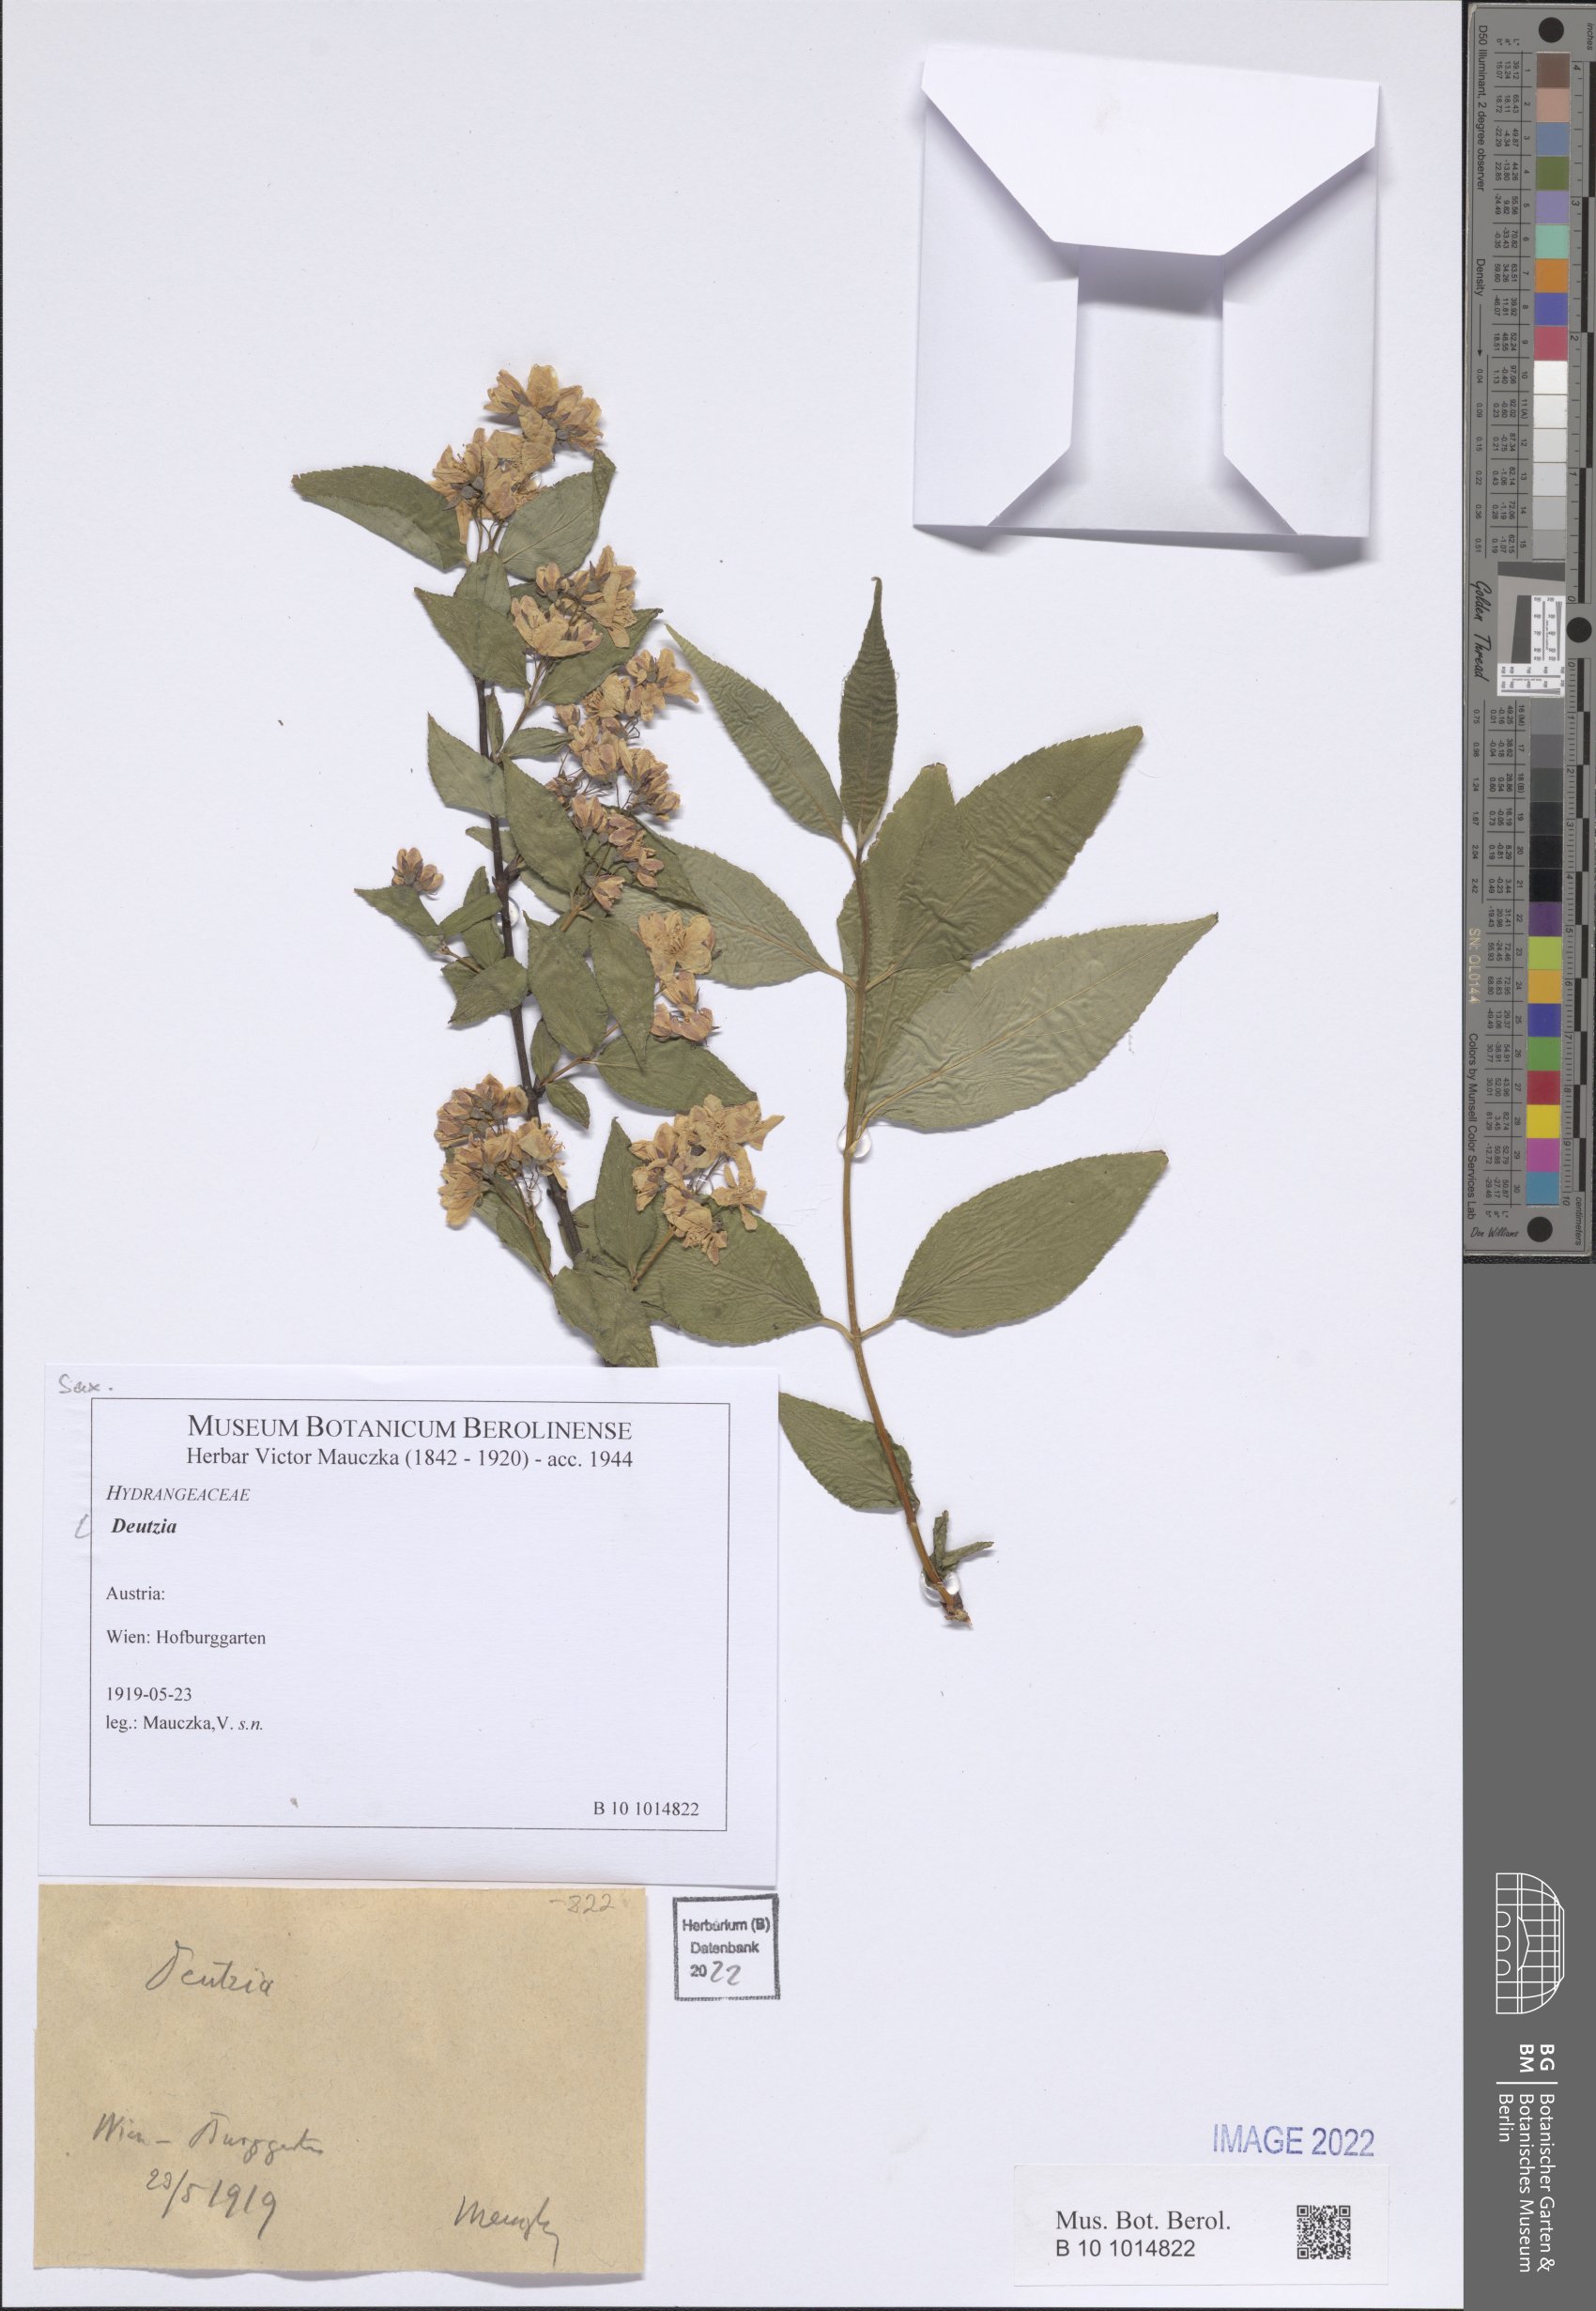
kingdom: Plantae
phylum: Tracheophyta
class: Magnoliopsida
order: Cornales
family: Hydrangeaceae
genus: Deutzia
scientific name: Deutzia
